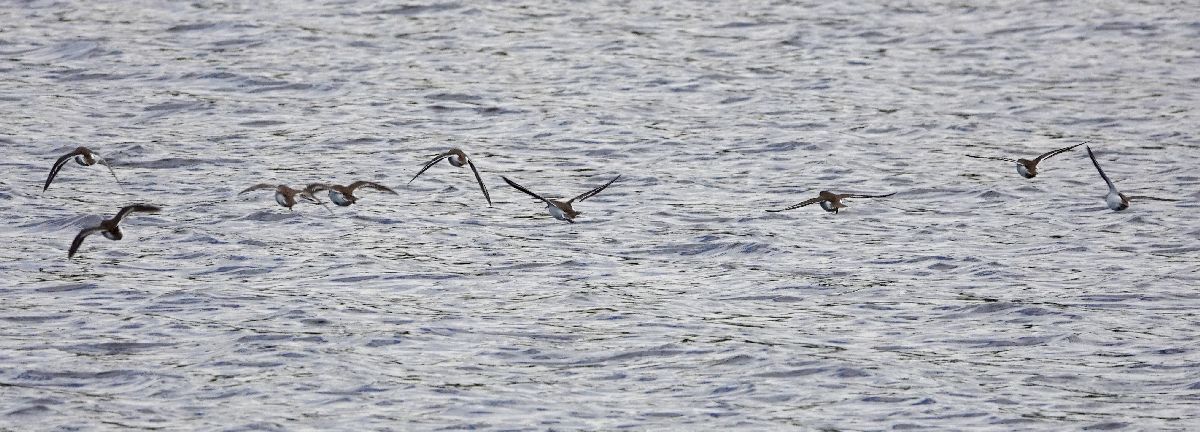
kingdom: Animalia
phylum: Chordata
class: Aves
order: Charadriiformes
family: Scolopacidae
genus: Actitis
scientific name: Actitis hypoleucos
